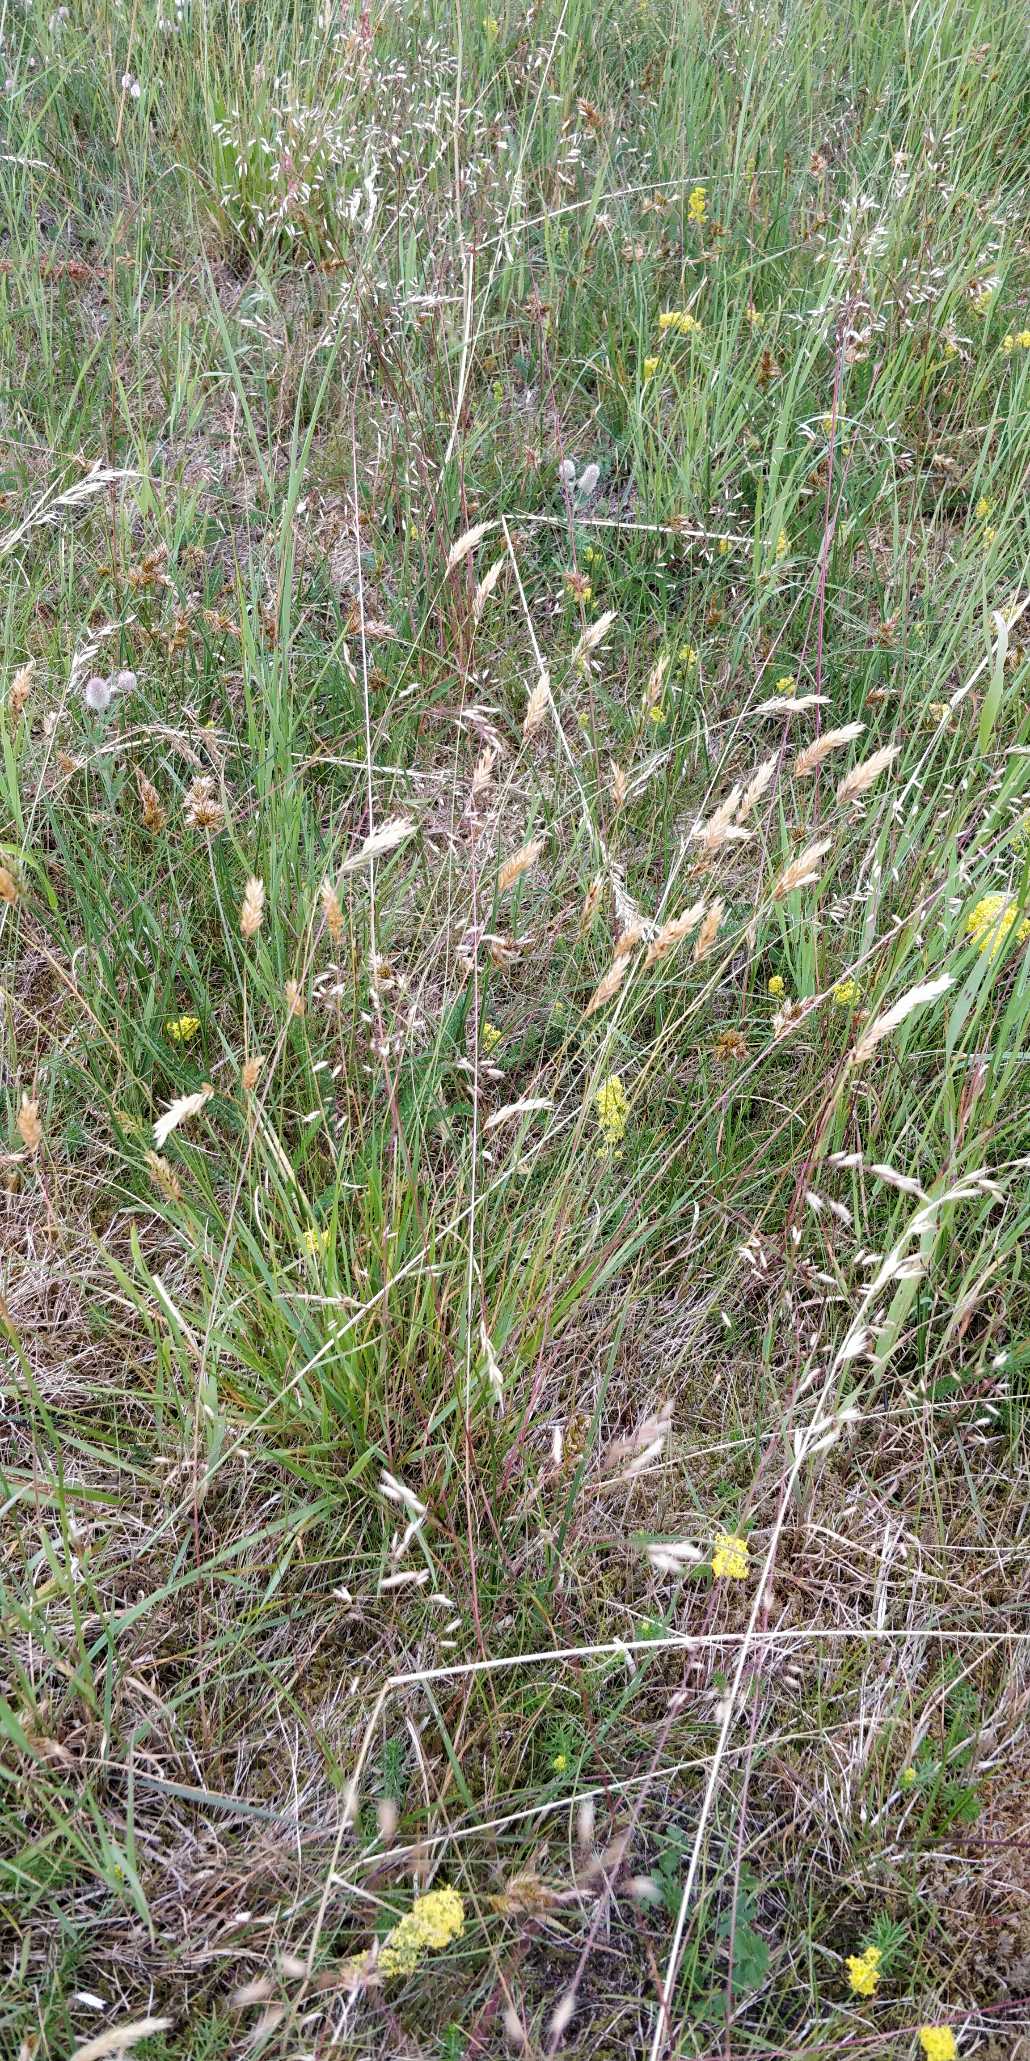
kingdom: Plantae
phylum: Tracheophyta
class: Liliopsida
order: Poales
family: Poaceae
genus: Anthoxanthum
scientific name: Anthoxanthum odoratum
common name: Vellugtende gulaks
